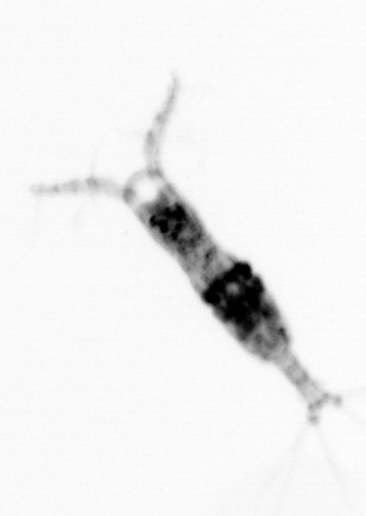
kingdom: Animalia
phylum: Arthropoda
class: Copepoda
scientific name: Copepoda
